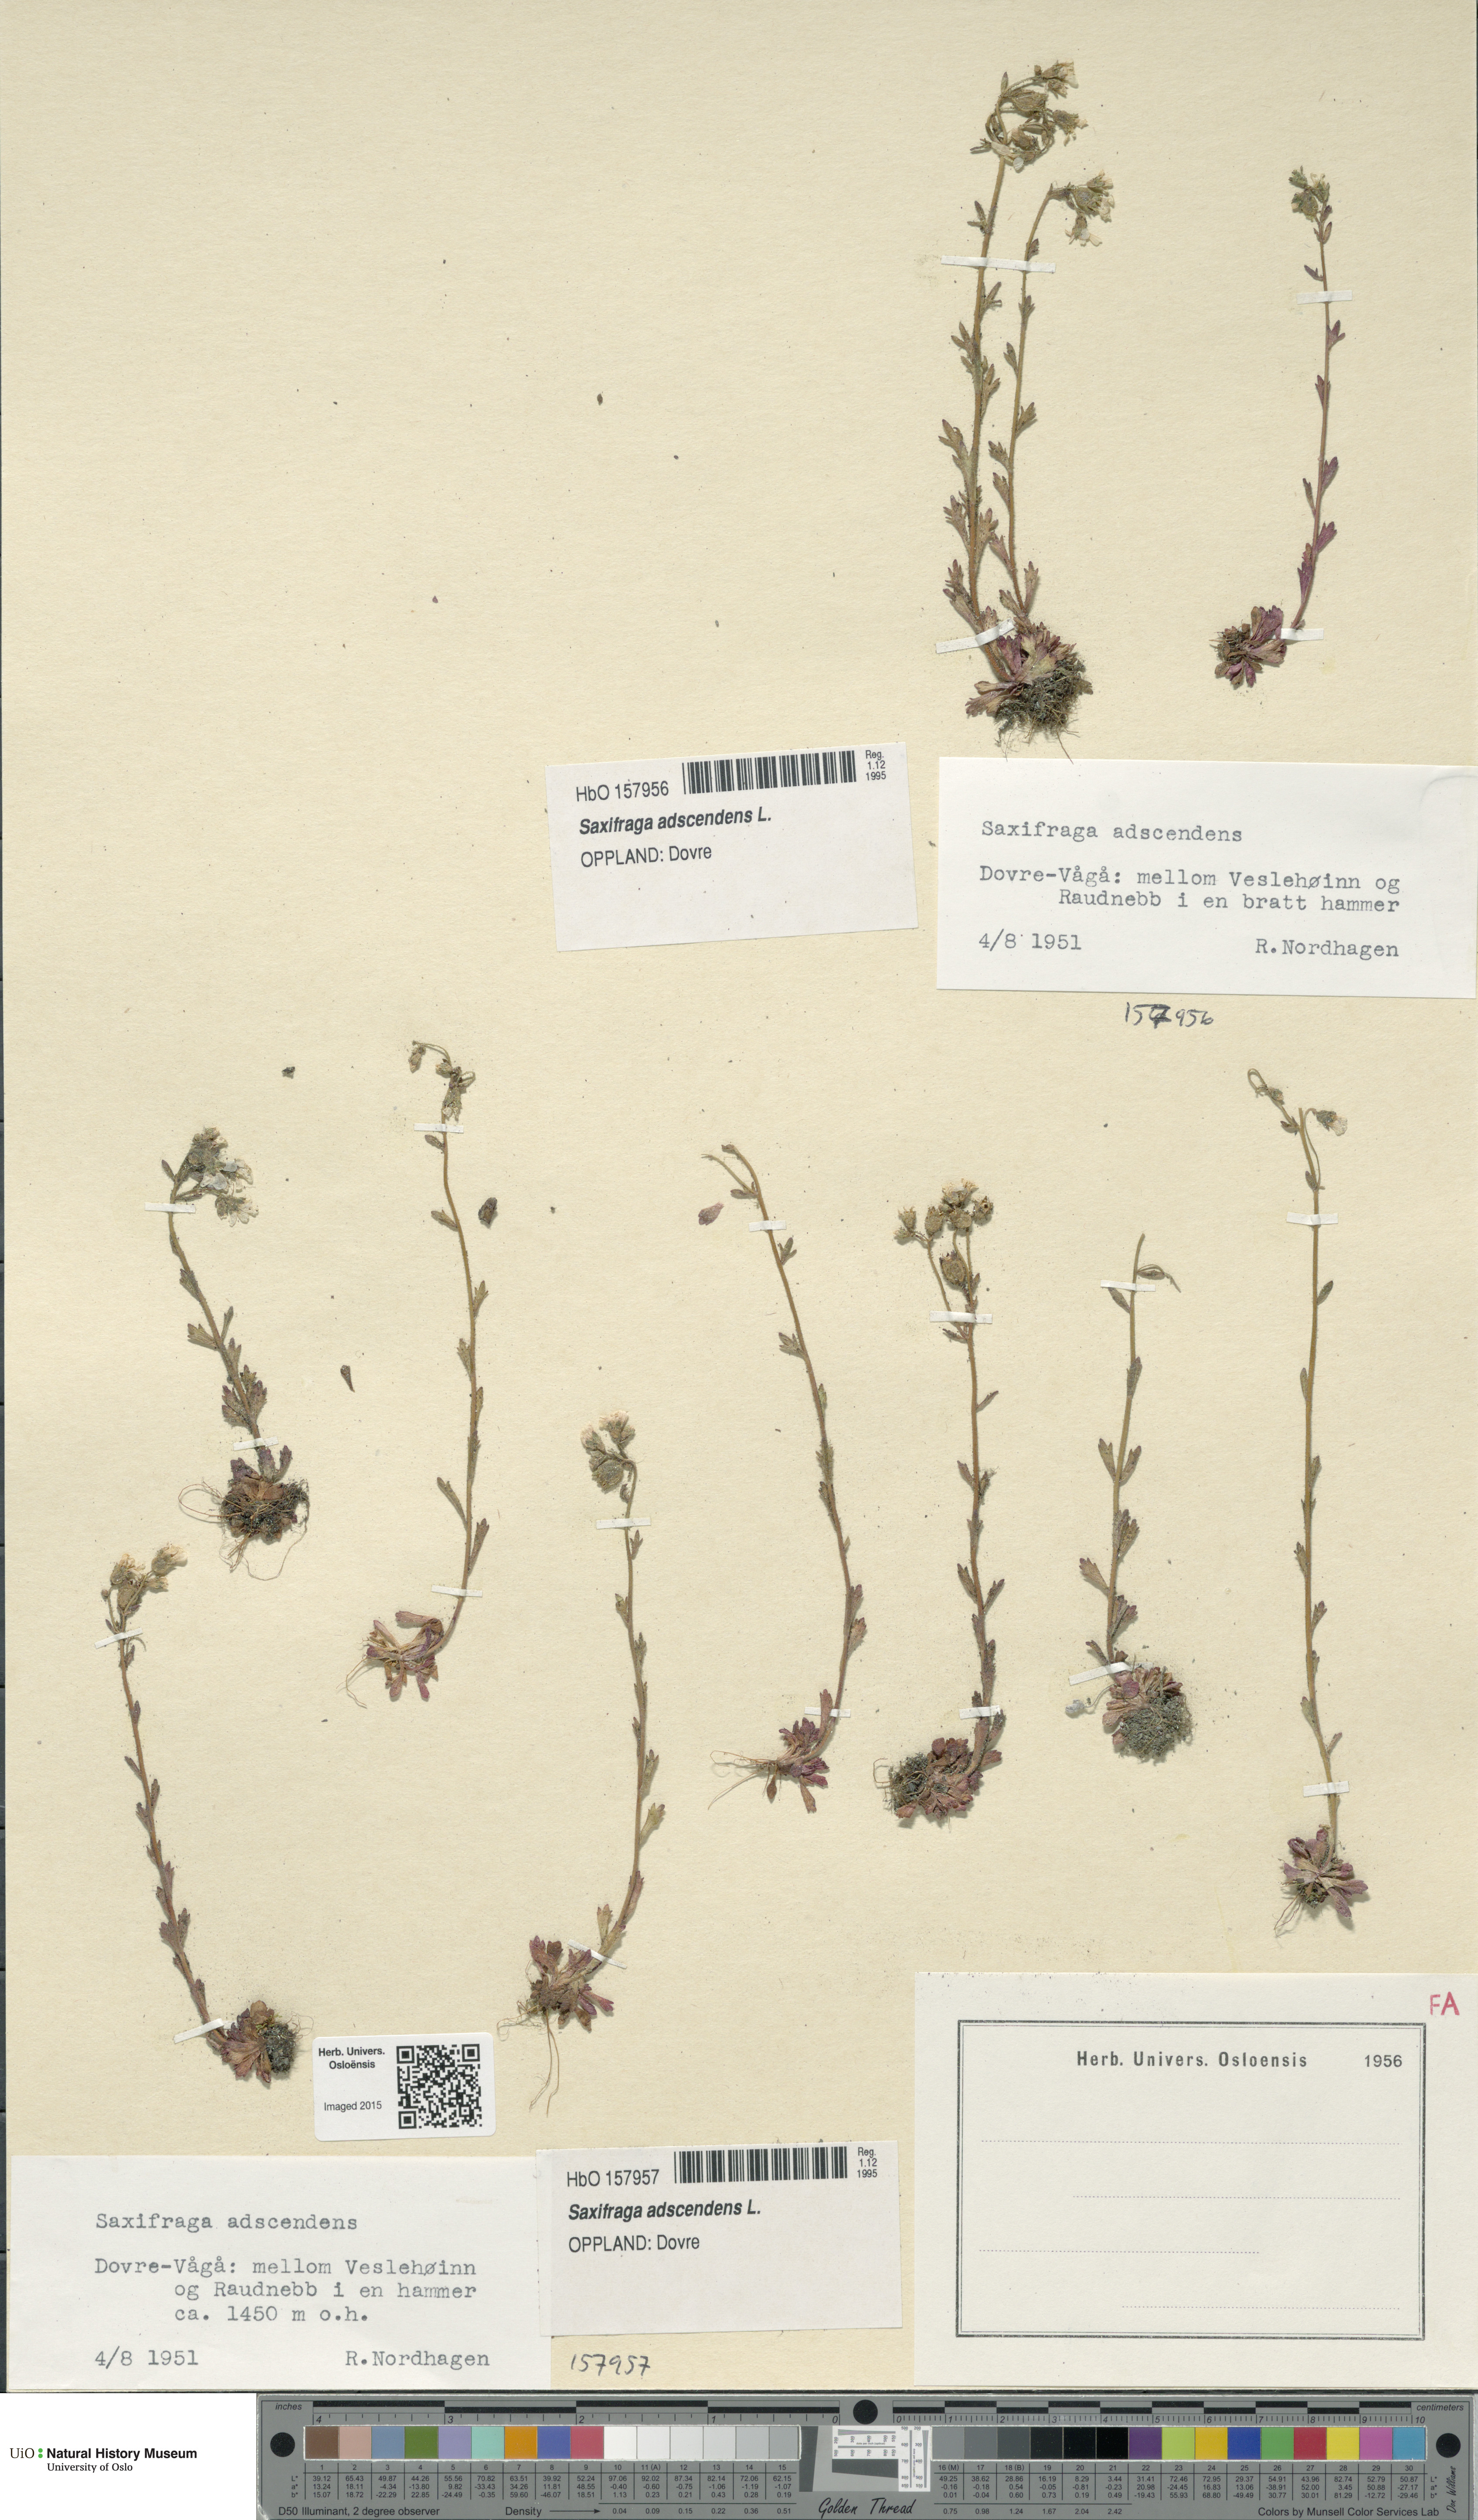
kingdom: Plantae
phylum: Tracheophyta
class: Magnoliopsida
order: Saxifragales
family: Saxifragaceae
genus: Saxifraga
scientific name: Saxifraga adscendens
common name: Ascending saxifrage
